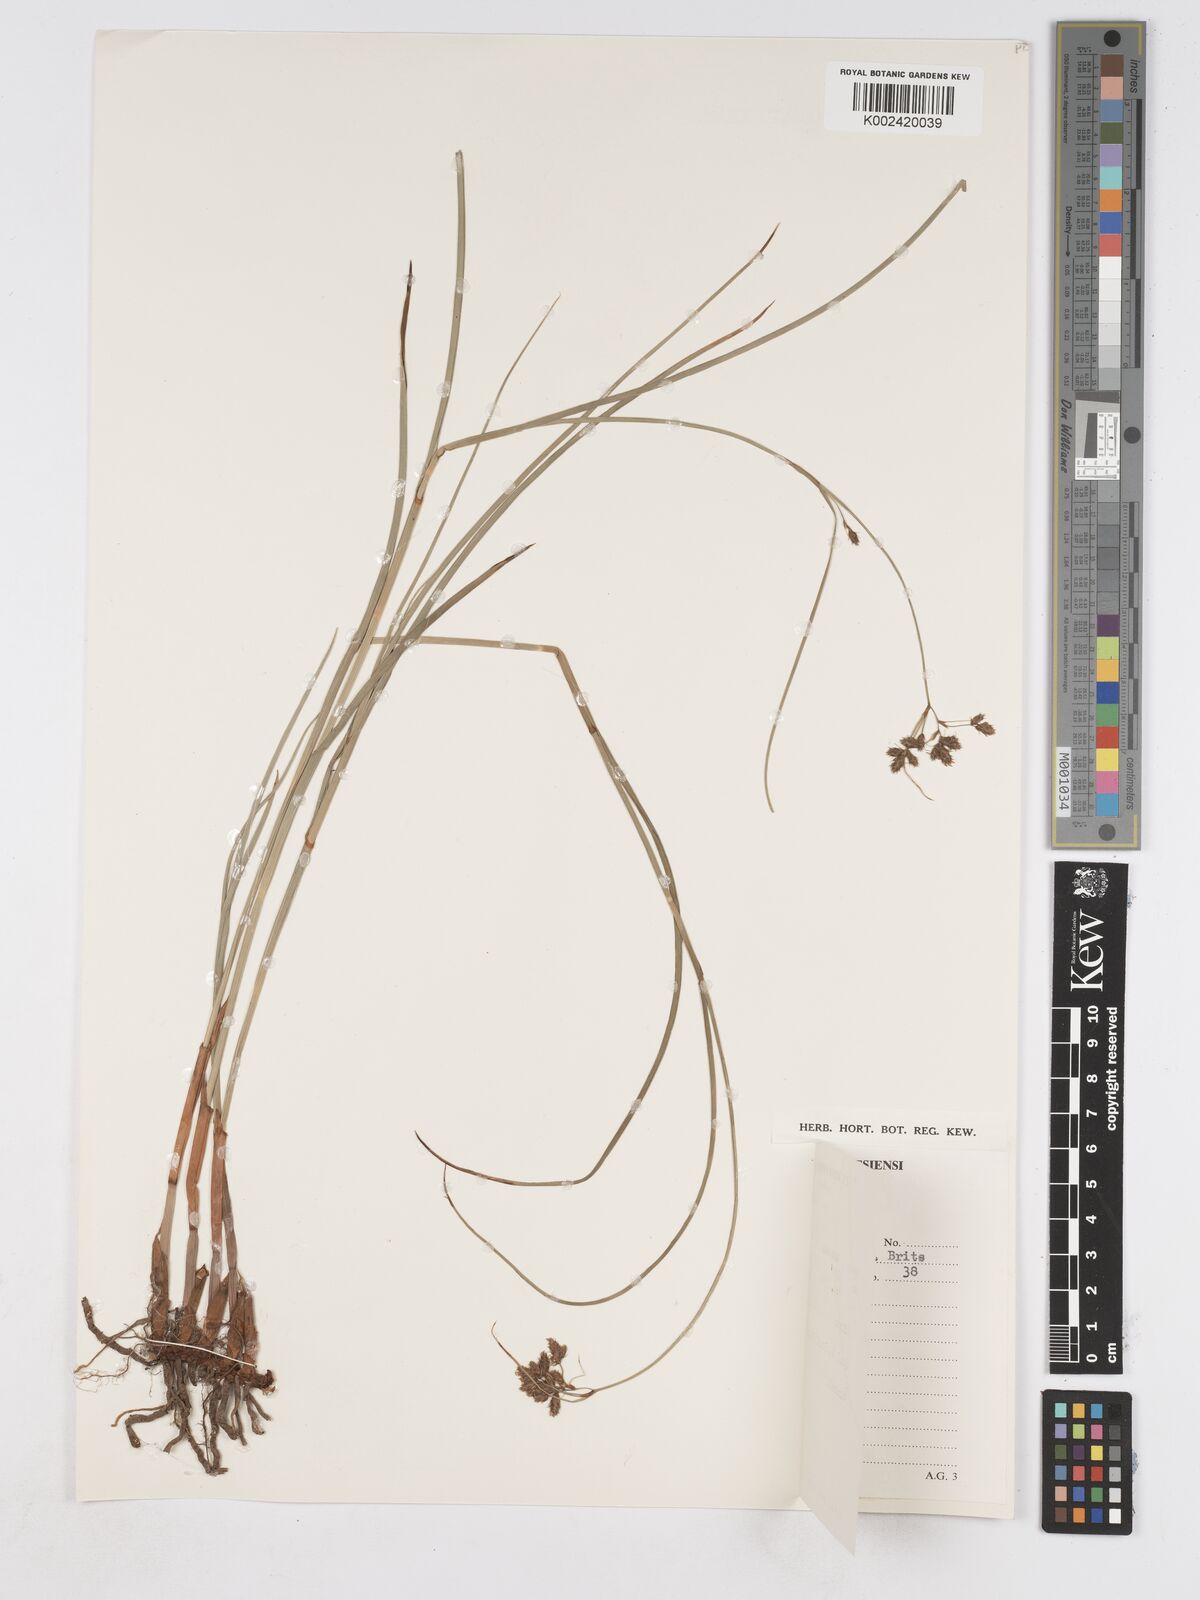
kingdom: Plantae
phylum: Tracheophyta
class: Liliopsida
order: Poales
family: Cyperaceae
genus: Fuirena
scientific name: Fuirena
